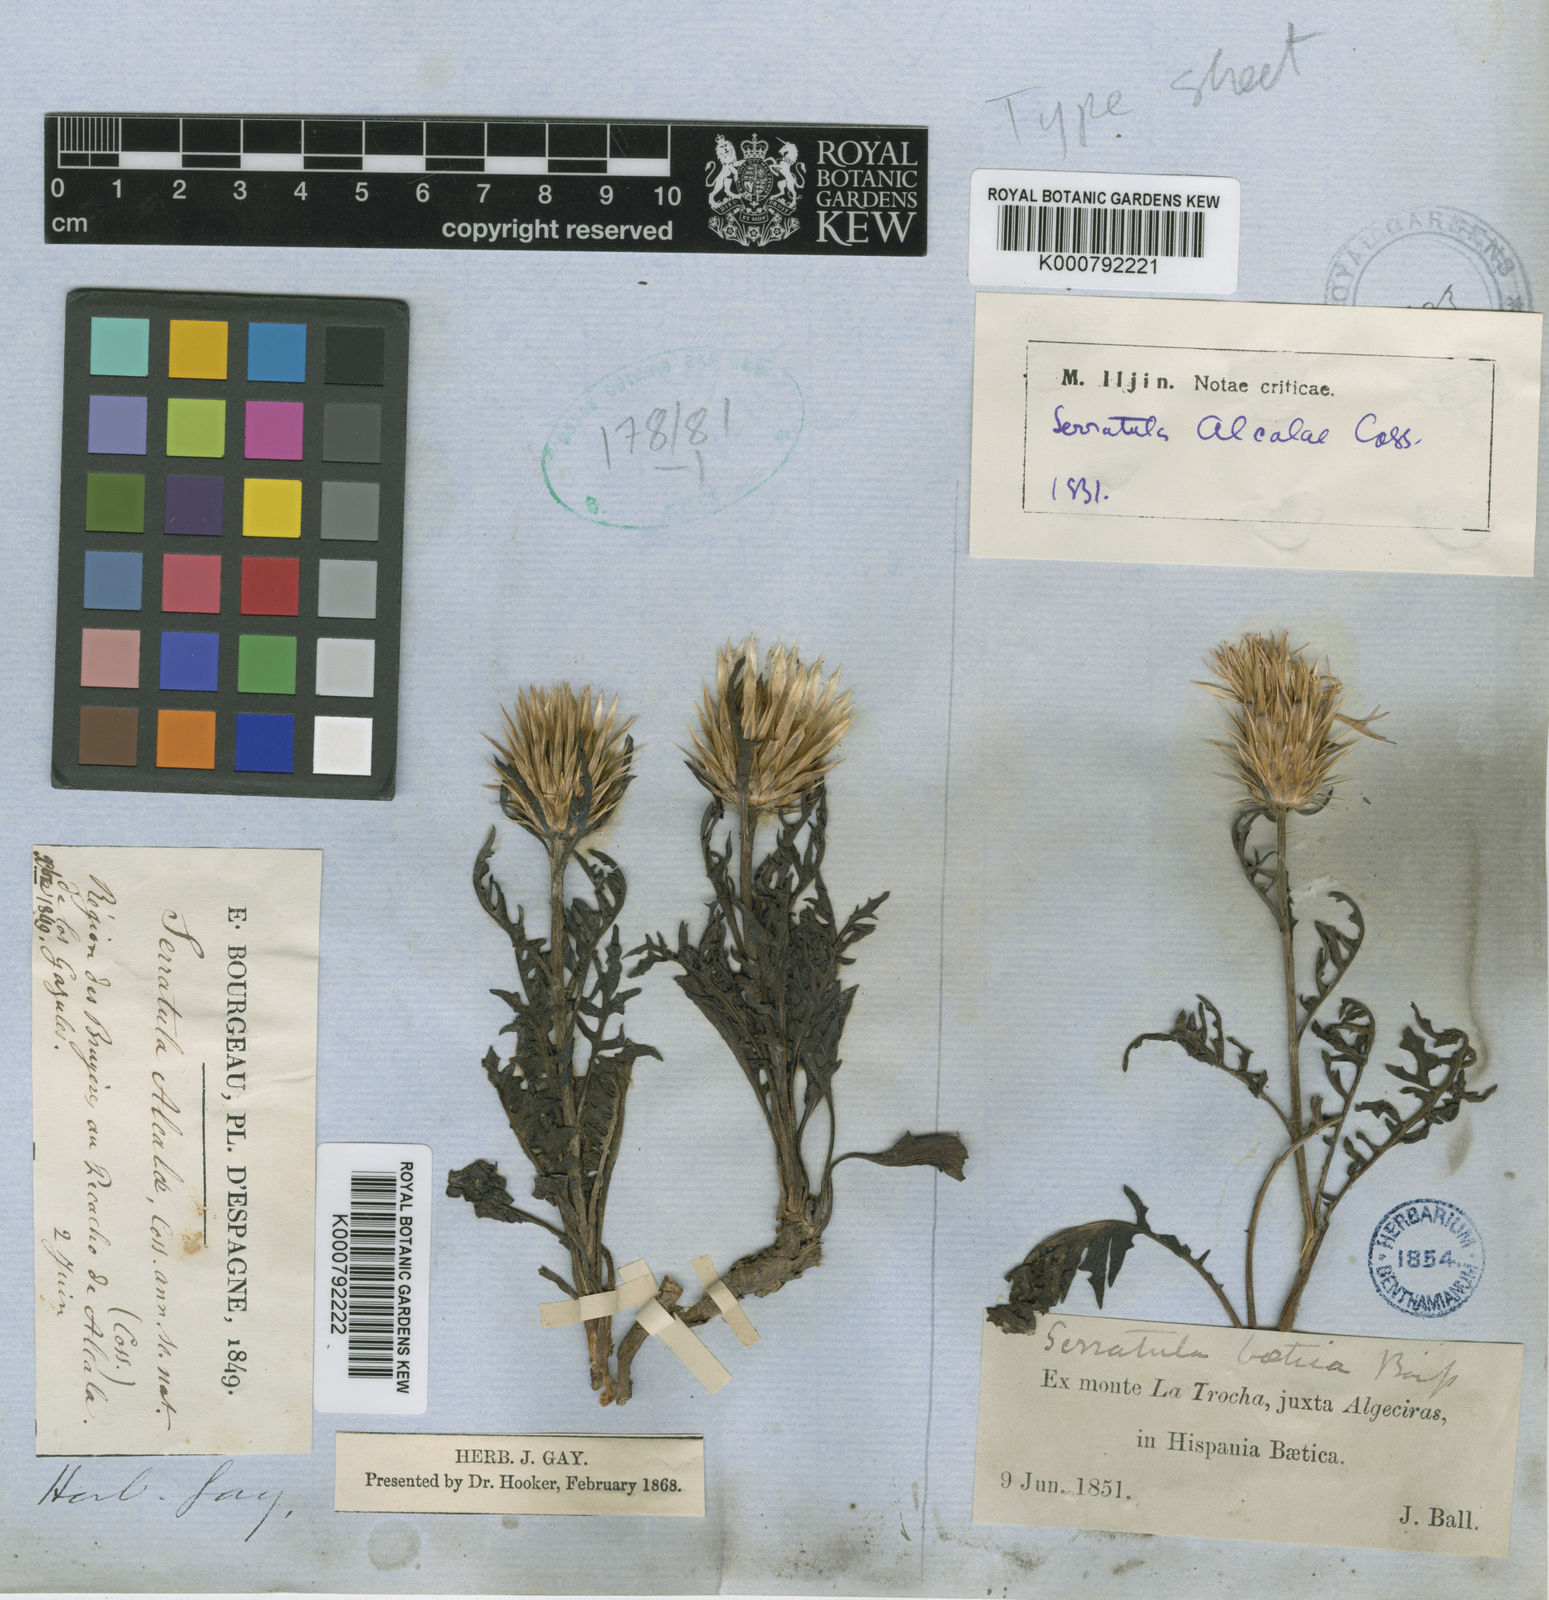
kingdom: Plantae
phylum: Tracheophyta
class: Magnoliopsida
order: Asterales
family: Asteraceae
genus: Klasea
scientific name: Klasea integrifolia
